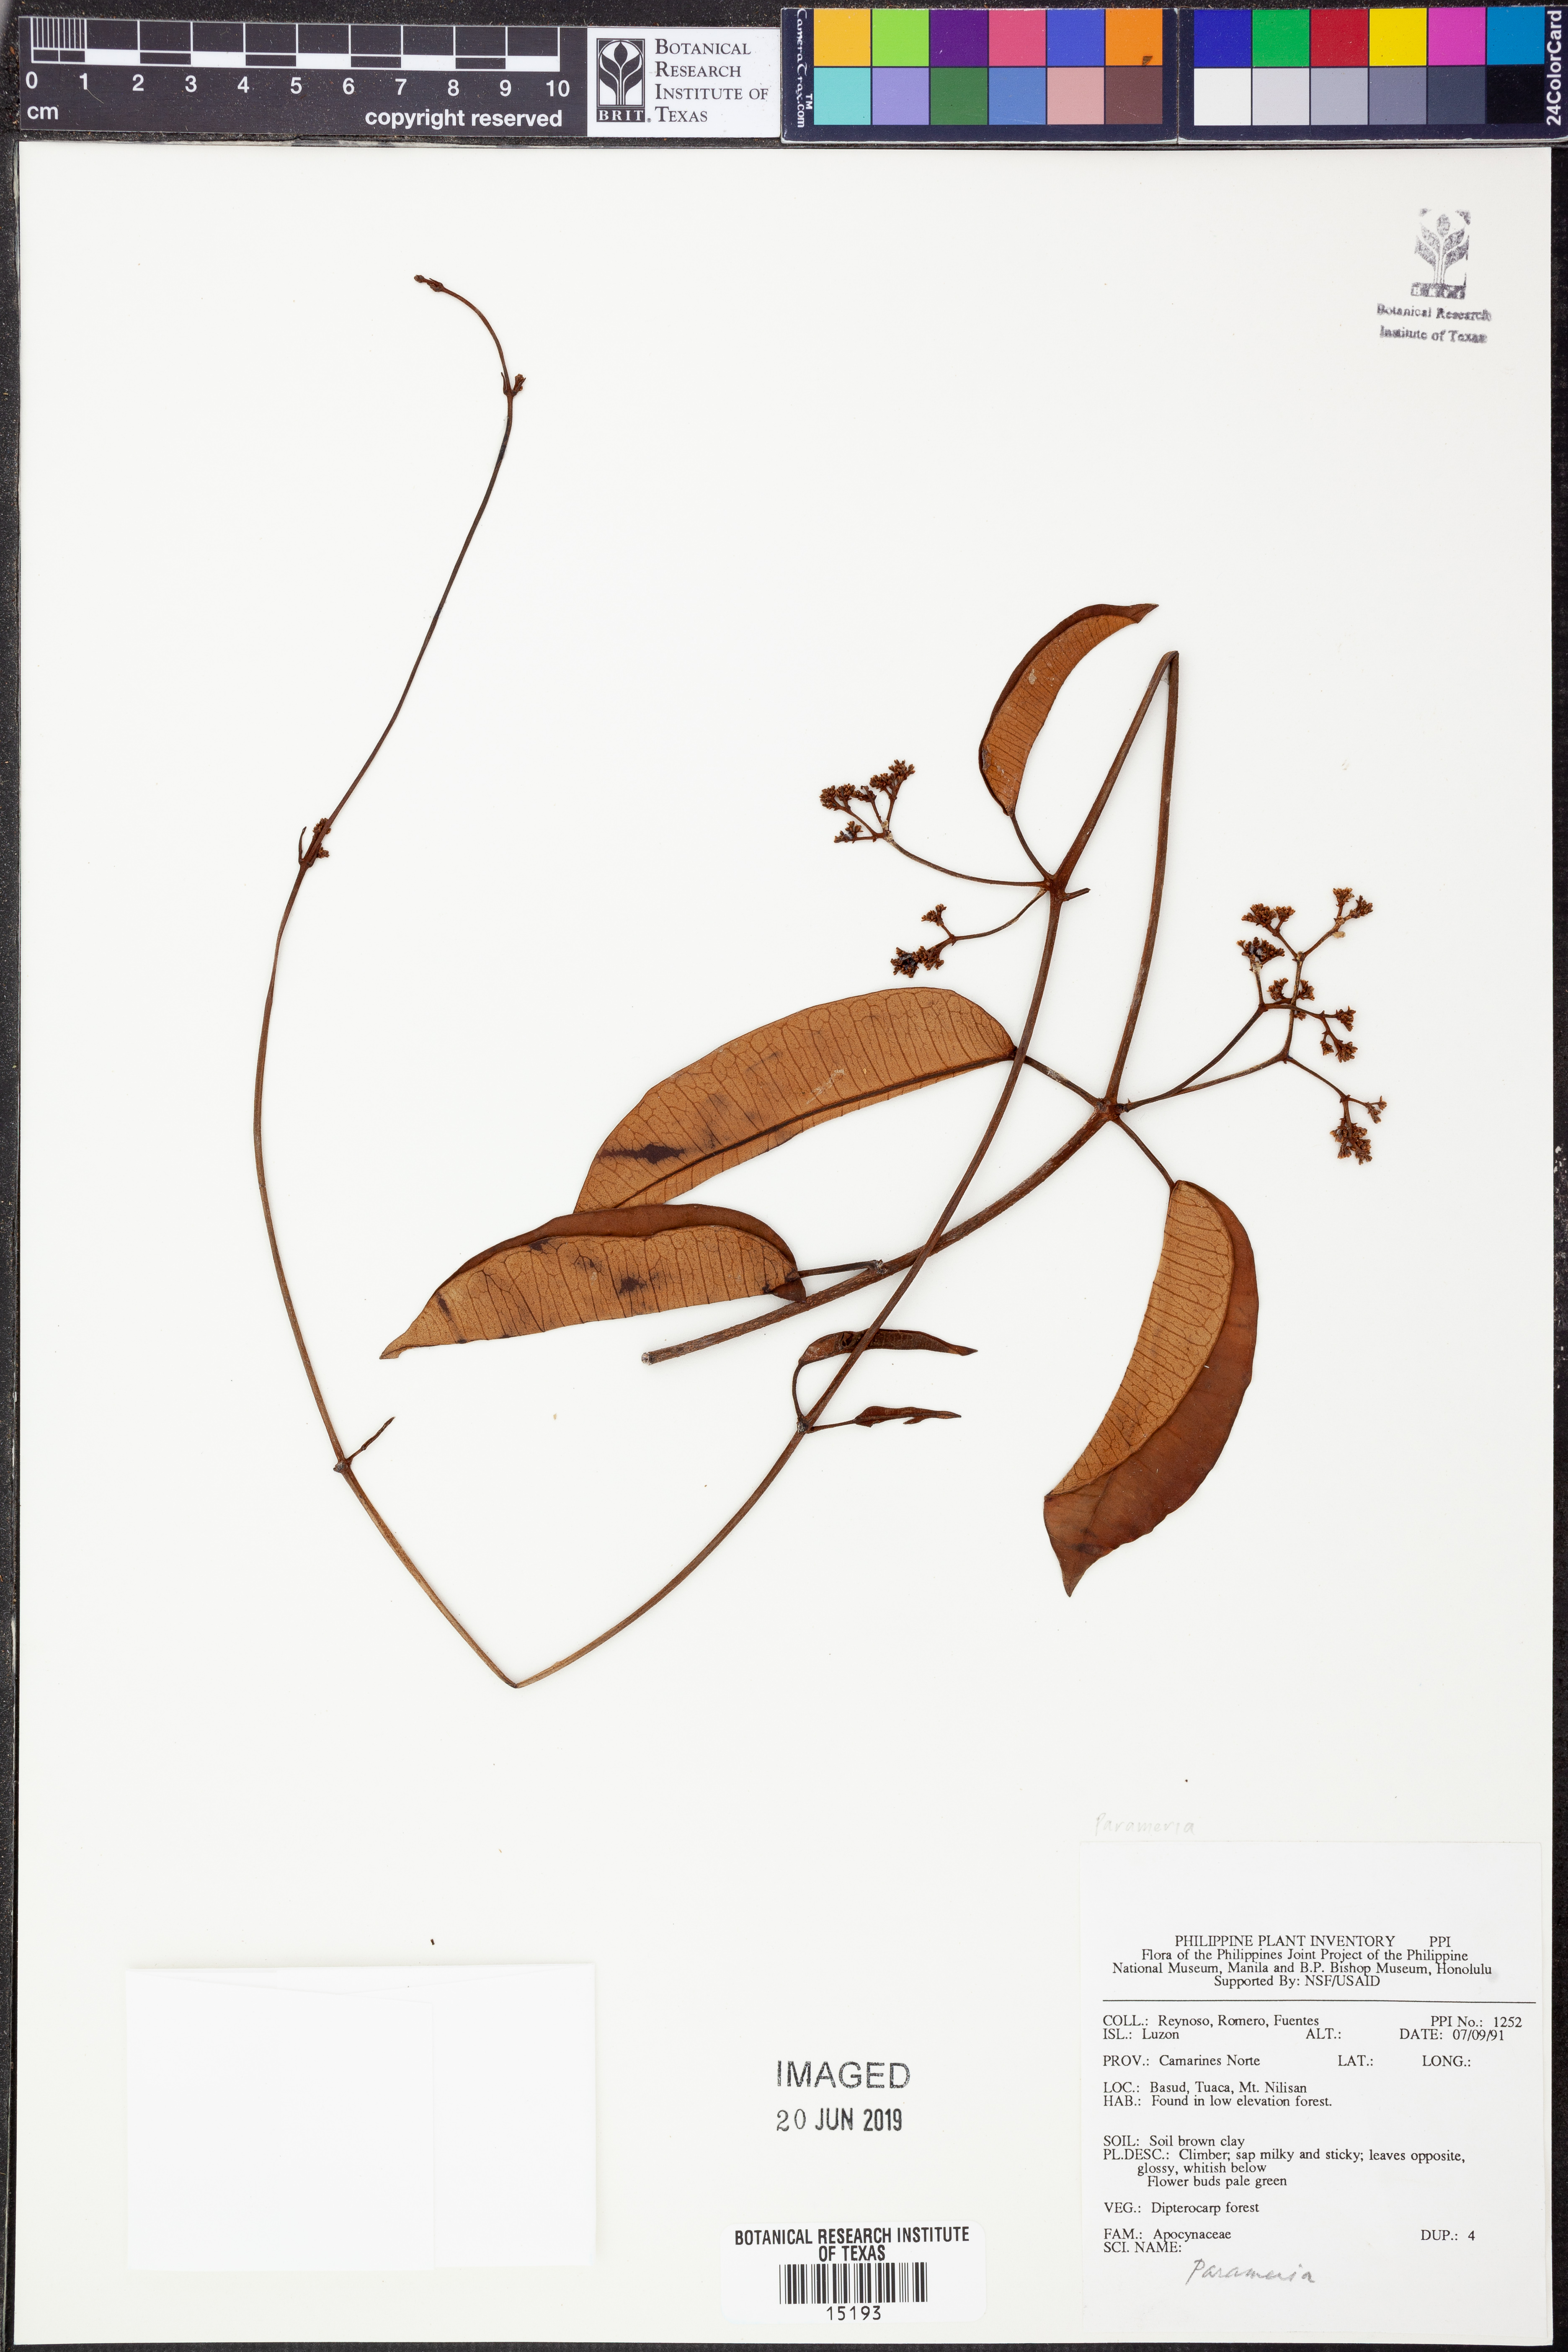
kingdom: Animalia
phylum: Arthropoda
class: Insecta
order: Hymenoptera
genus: Parameria
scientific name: Parameria
